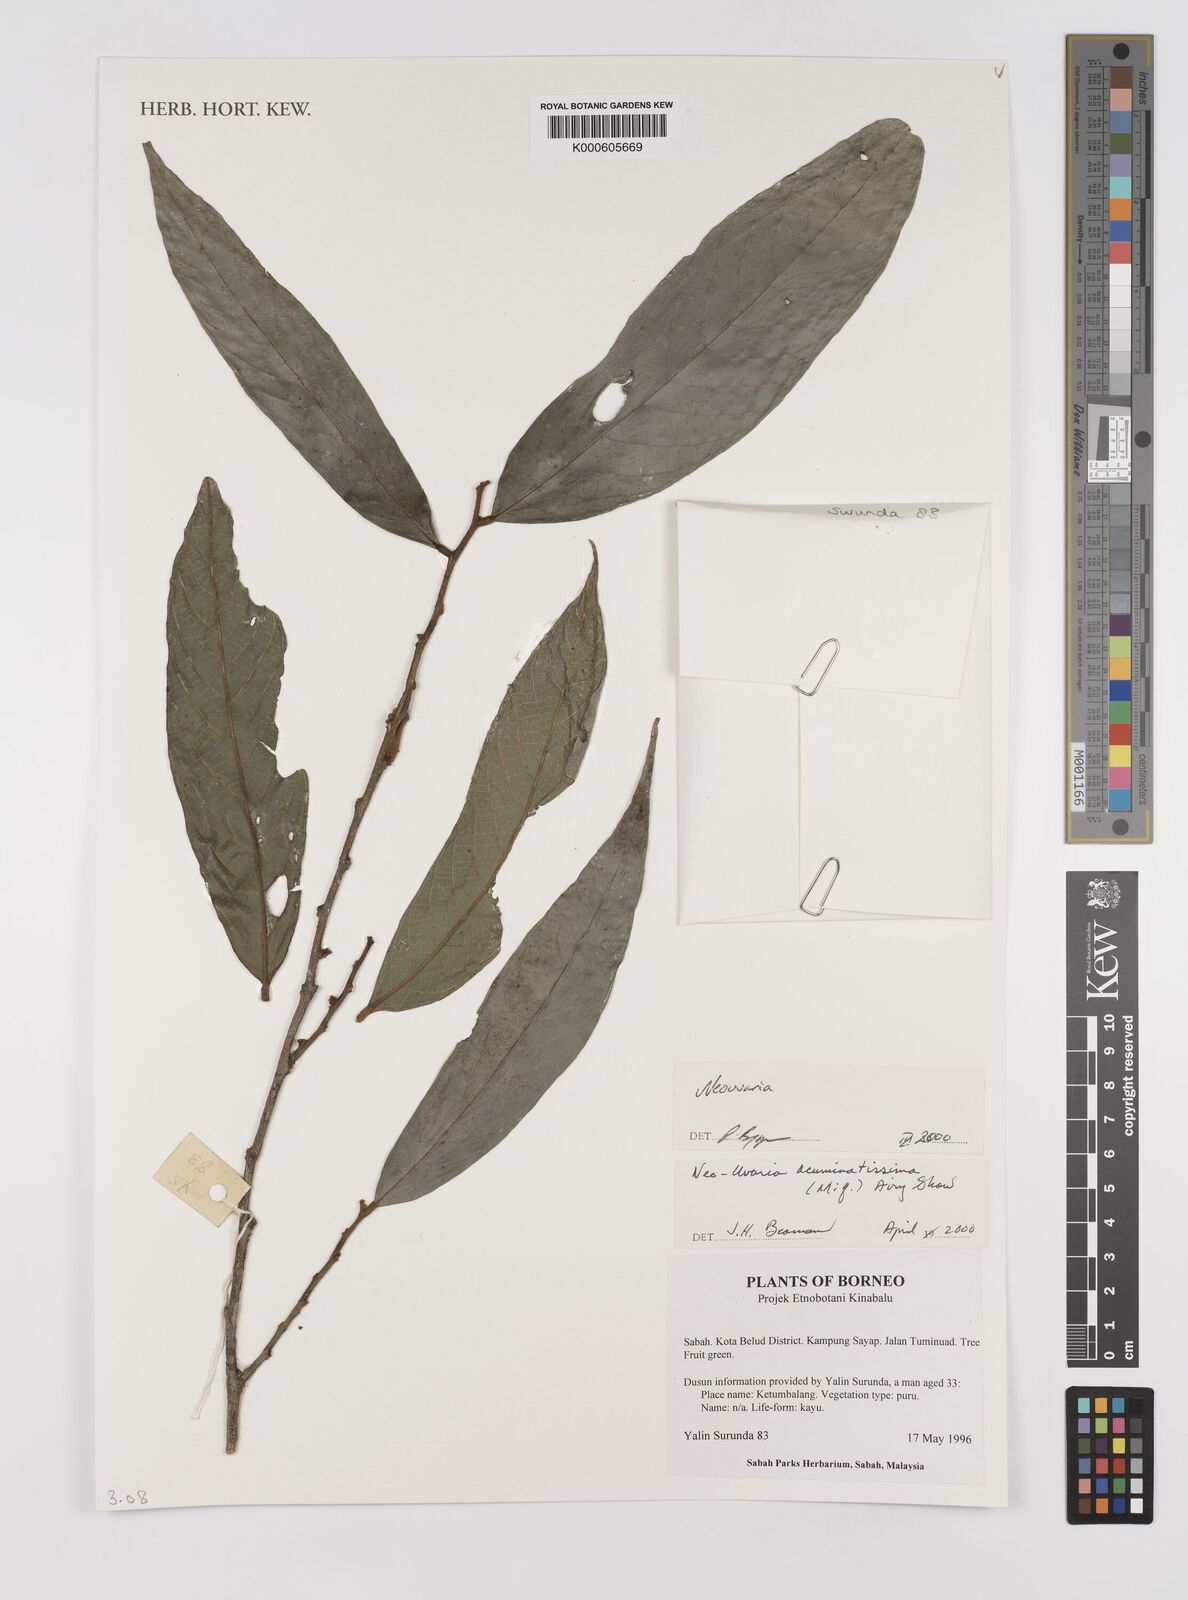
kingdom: Plantae
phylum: Tracheophyta
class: Magnoliopsida
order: Magnoliales
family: Annonaceae
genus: Neouvaria
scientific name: Neouvaria acuminatissima
